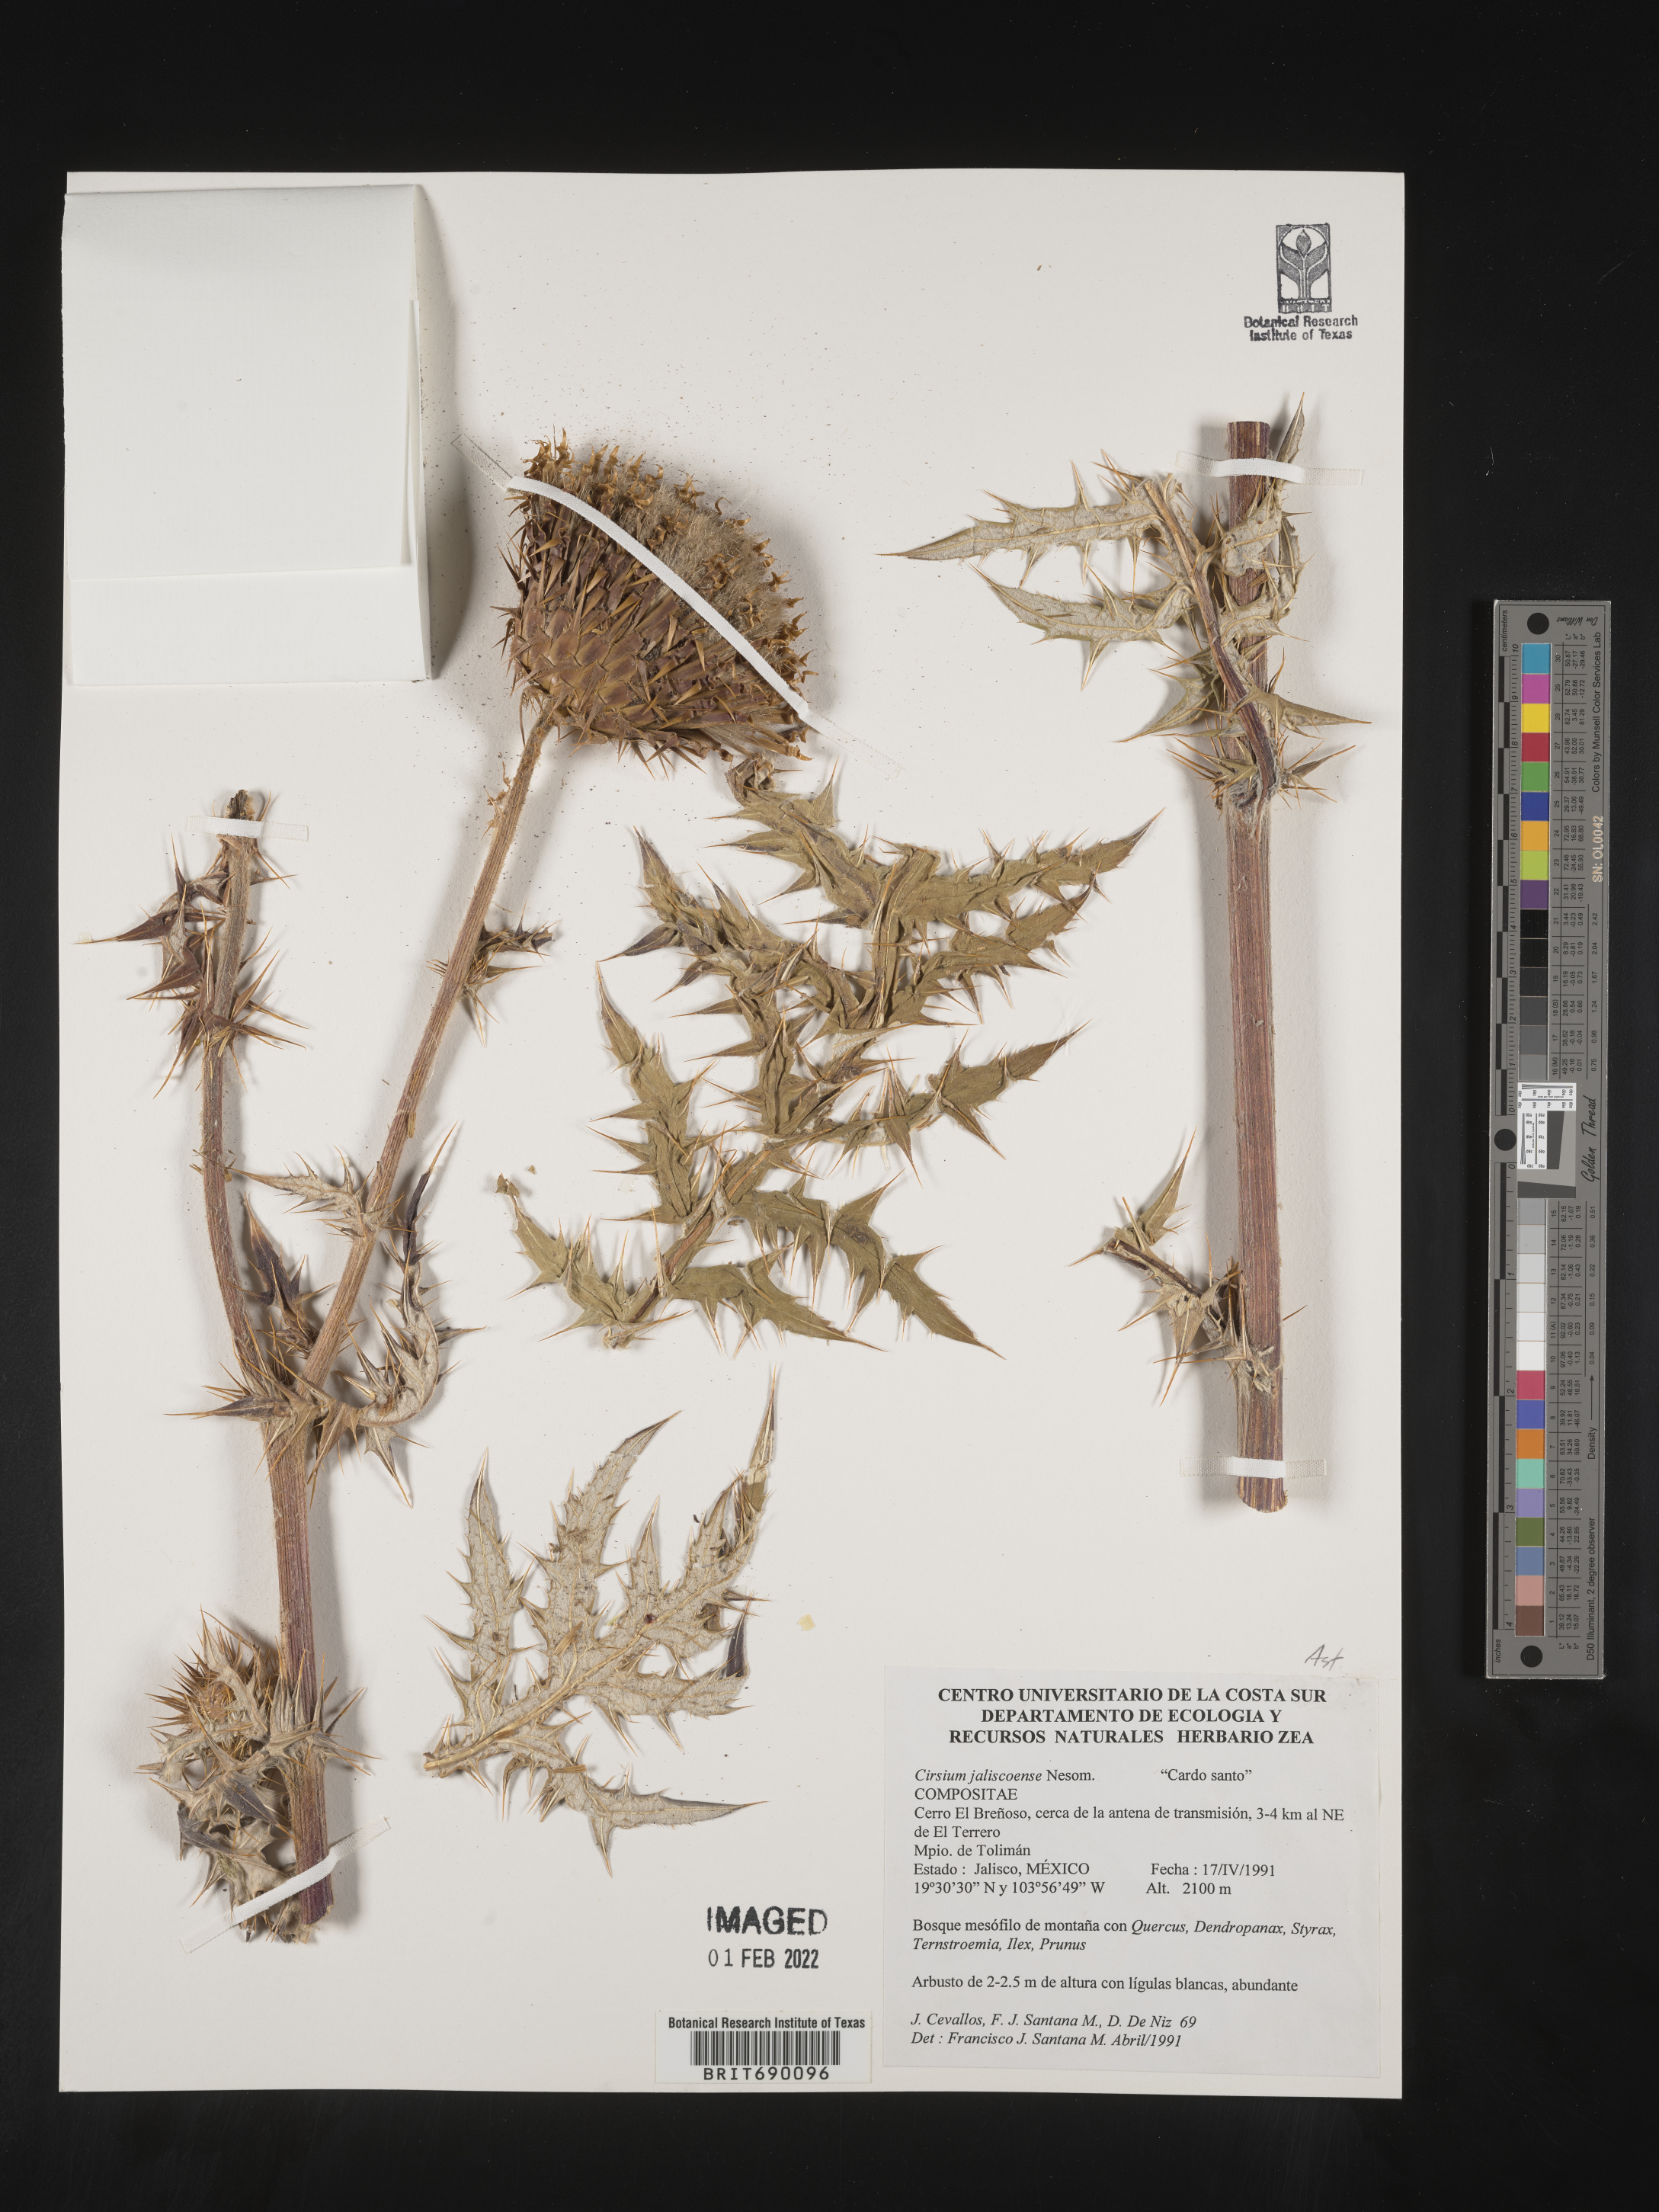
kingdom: Plantae
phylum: Tracheophyta
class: Magnoliopsida
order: Asterales
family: Asteraceae
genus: Cirsium
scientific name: Cirsium
